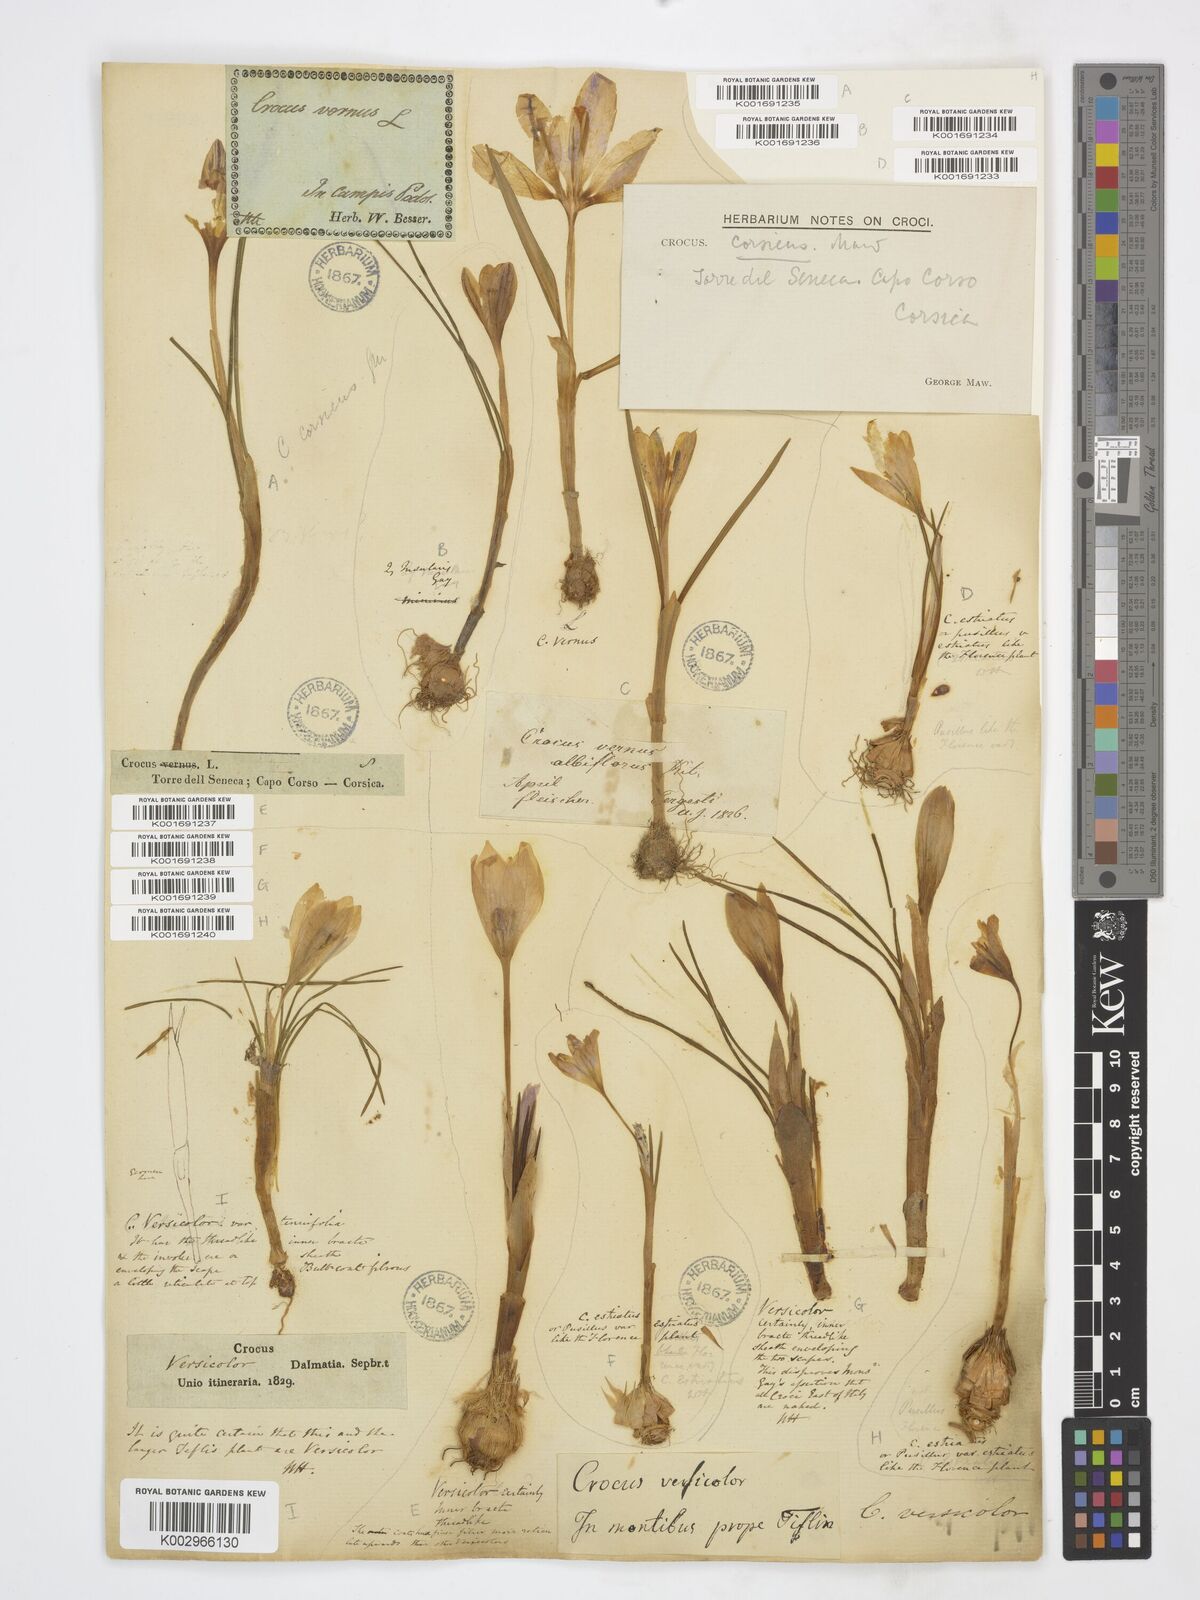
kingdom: Plantae
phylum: Tracheophyta
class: Liliopsida
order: Asparagales
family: Iridaceae
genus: Crocus
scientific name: Crocus minimus
